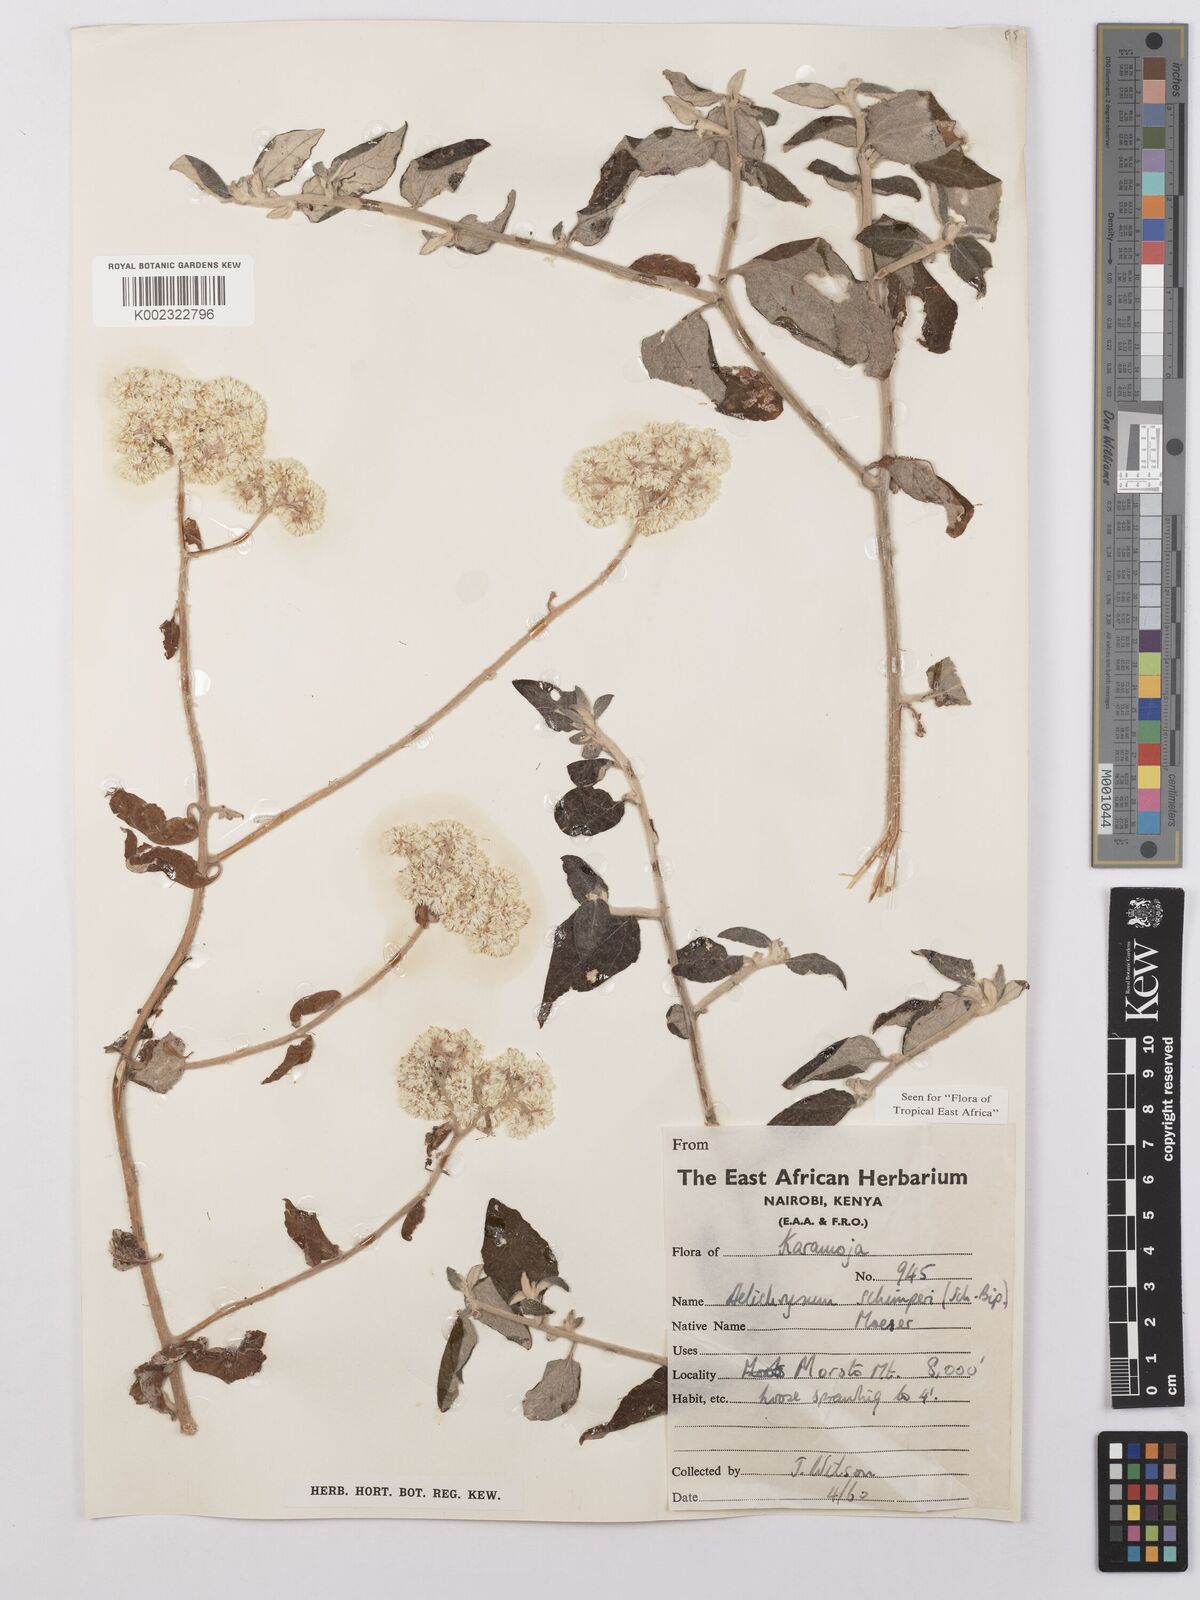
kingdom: Plantae
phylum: Tracheophyta
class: Magnoliopsida
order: Asterales
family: Asteraceae
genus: Helichrysum
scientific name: Helichrysum schimperi
